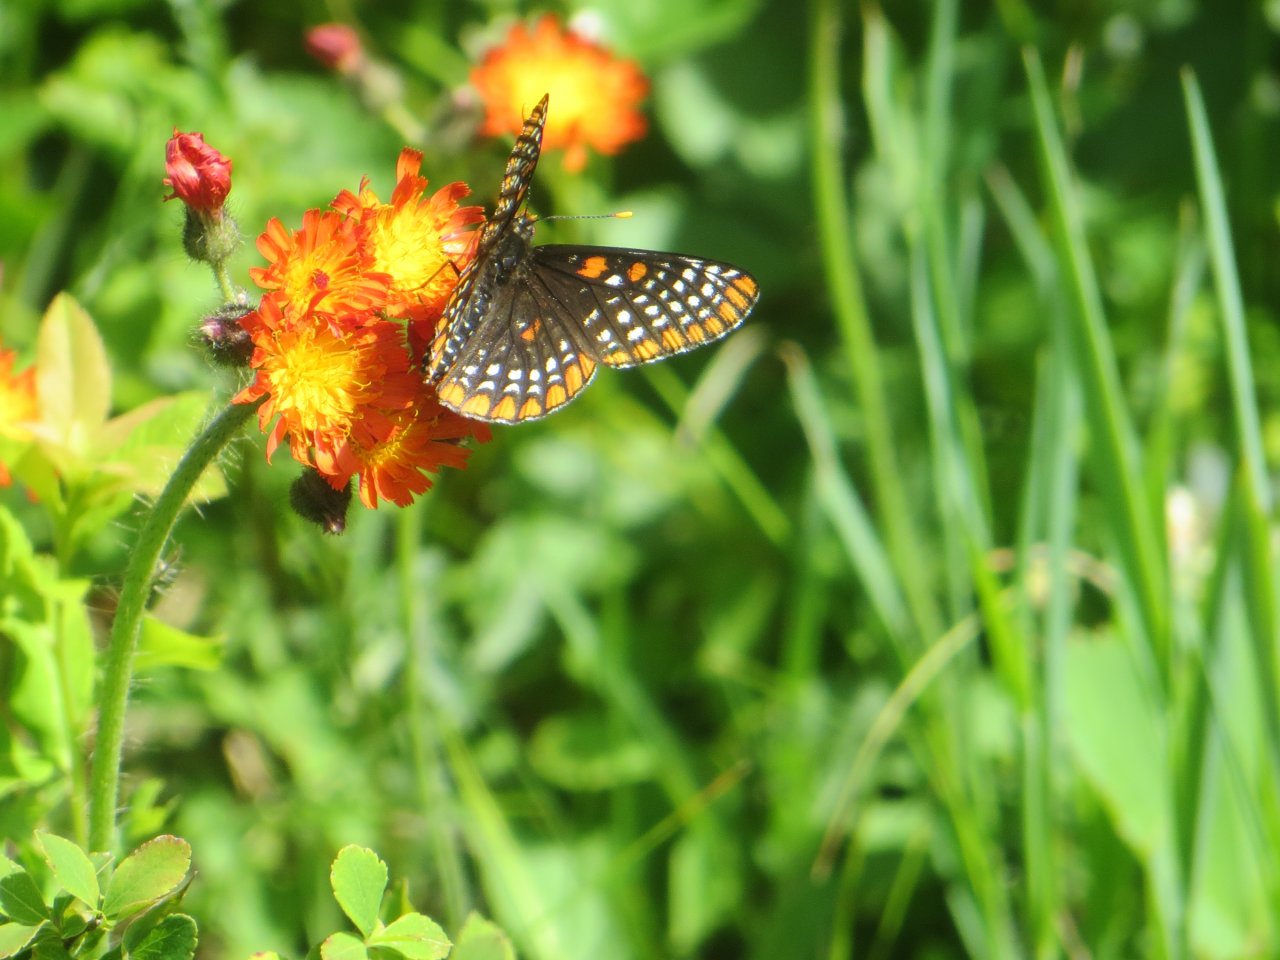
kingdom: Animalia
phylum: Arthropoda
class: Insecta
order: Lepidoptera
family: Nymphalidae
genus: Euphydryas
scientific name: Euphydryas phaeton
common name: Baltimore Checkerspot
